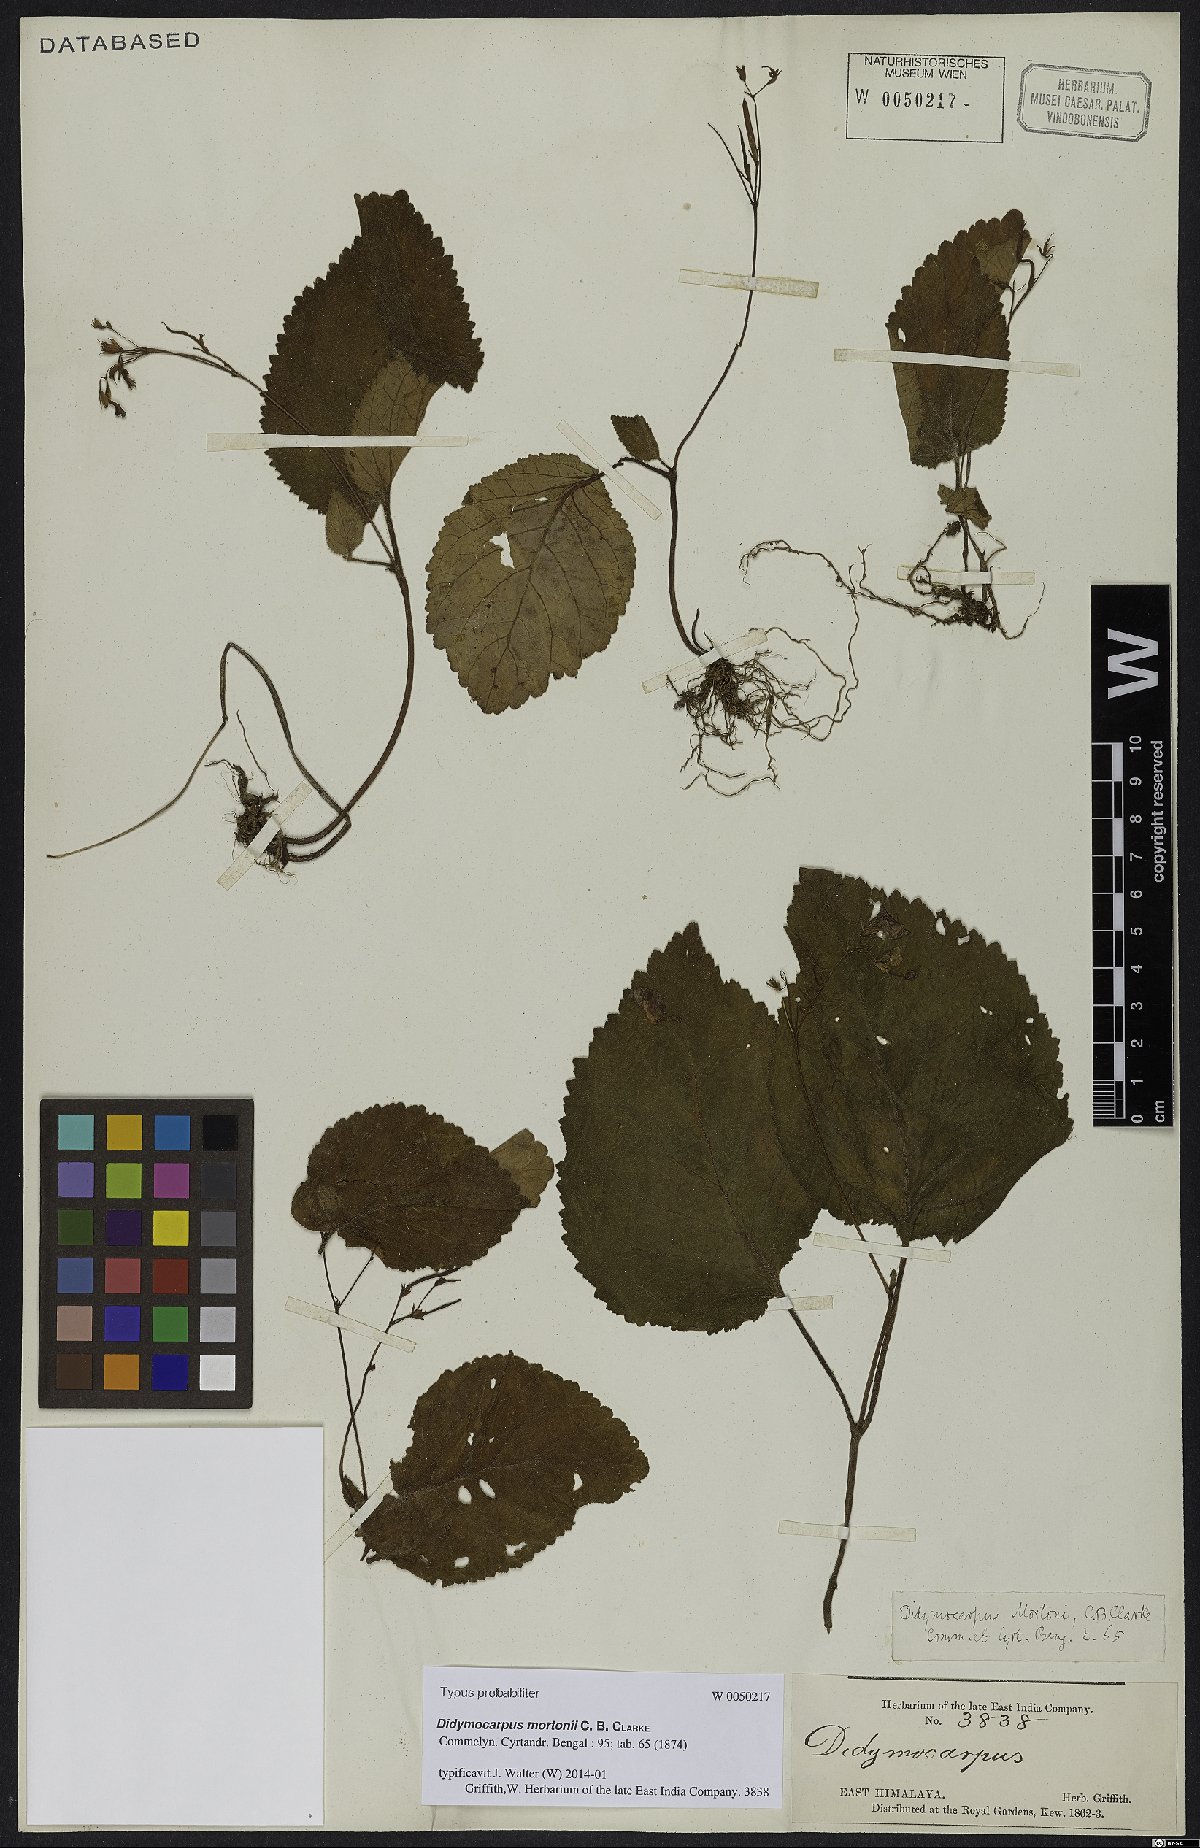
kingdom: Plantae
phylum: Tracheophyta
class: Magnoliopsida
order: Lamiales
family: Gesneriaceae
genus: Didymocarpus
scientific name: Didymocarpus mortonii
